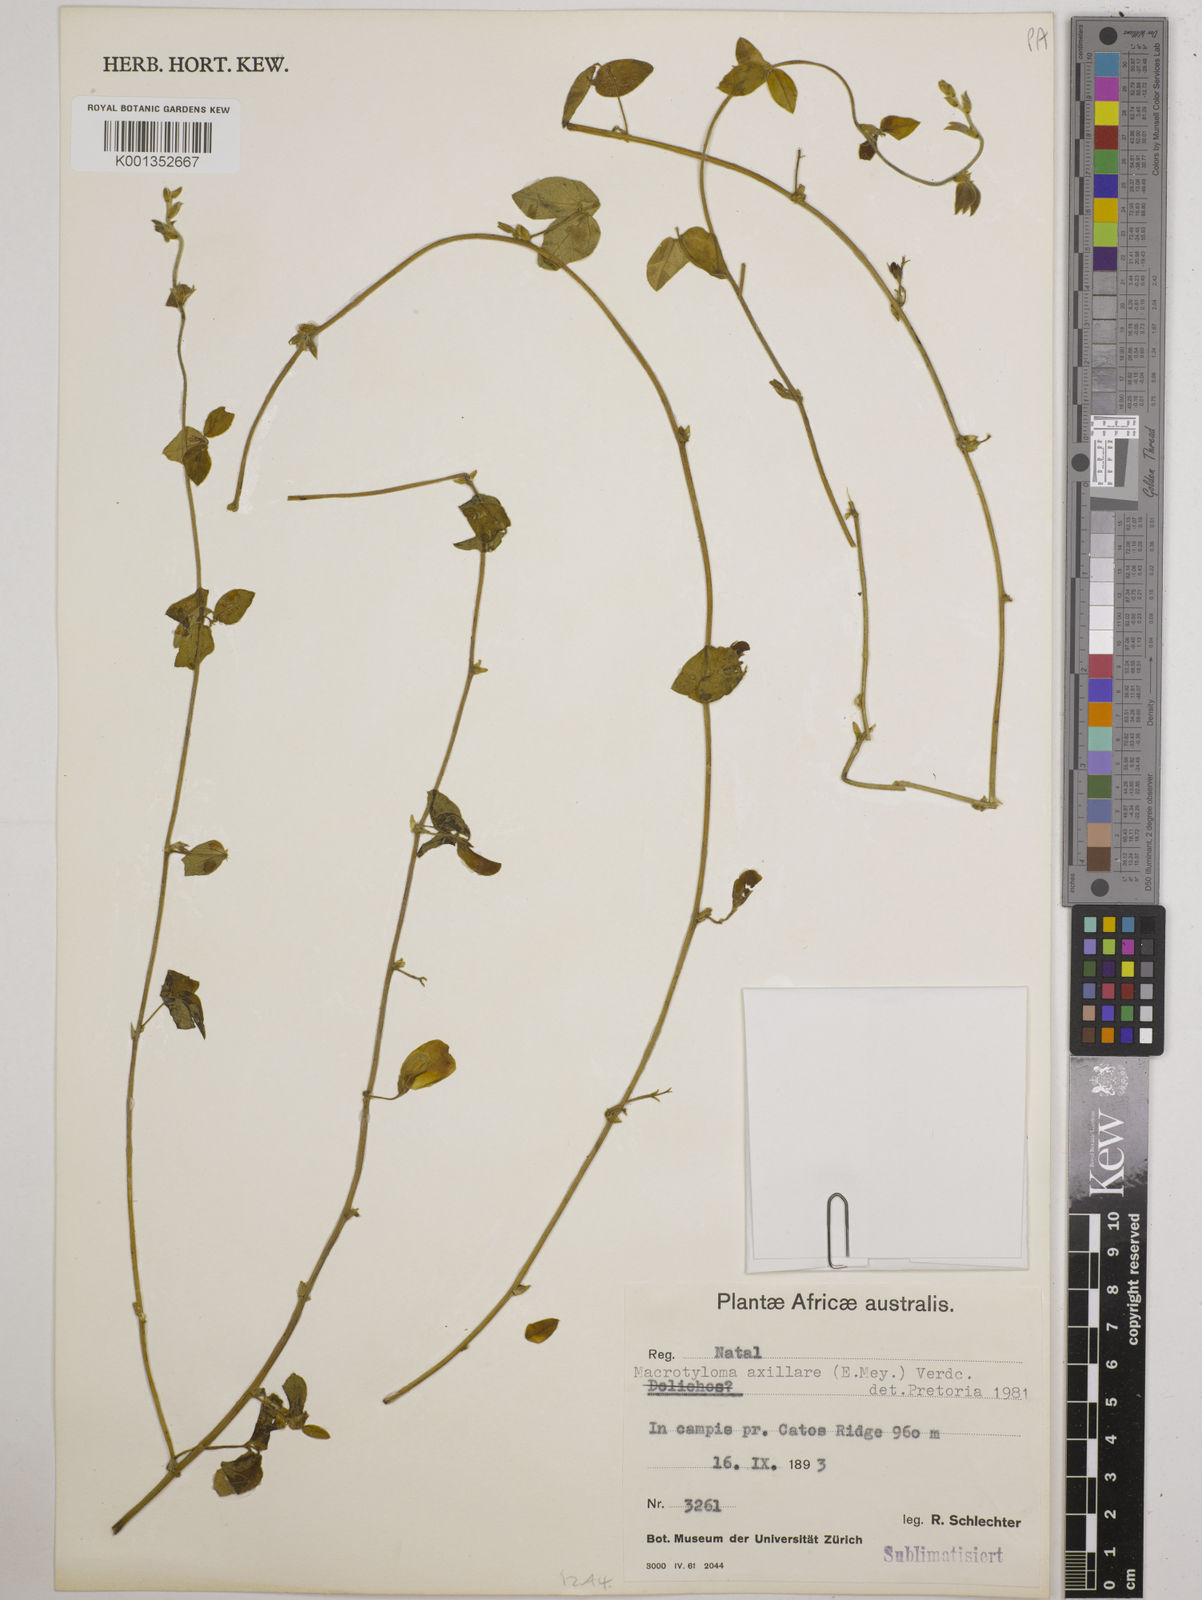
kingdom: Plantae
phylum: Tracheophyta
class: Magnoliopsida
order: Fabales
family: Fabaceae
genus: Macrotyloma
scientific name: Macrotyloma axillare
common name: Perennial horsegram
